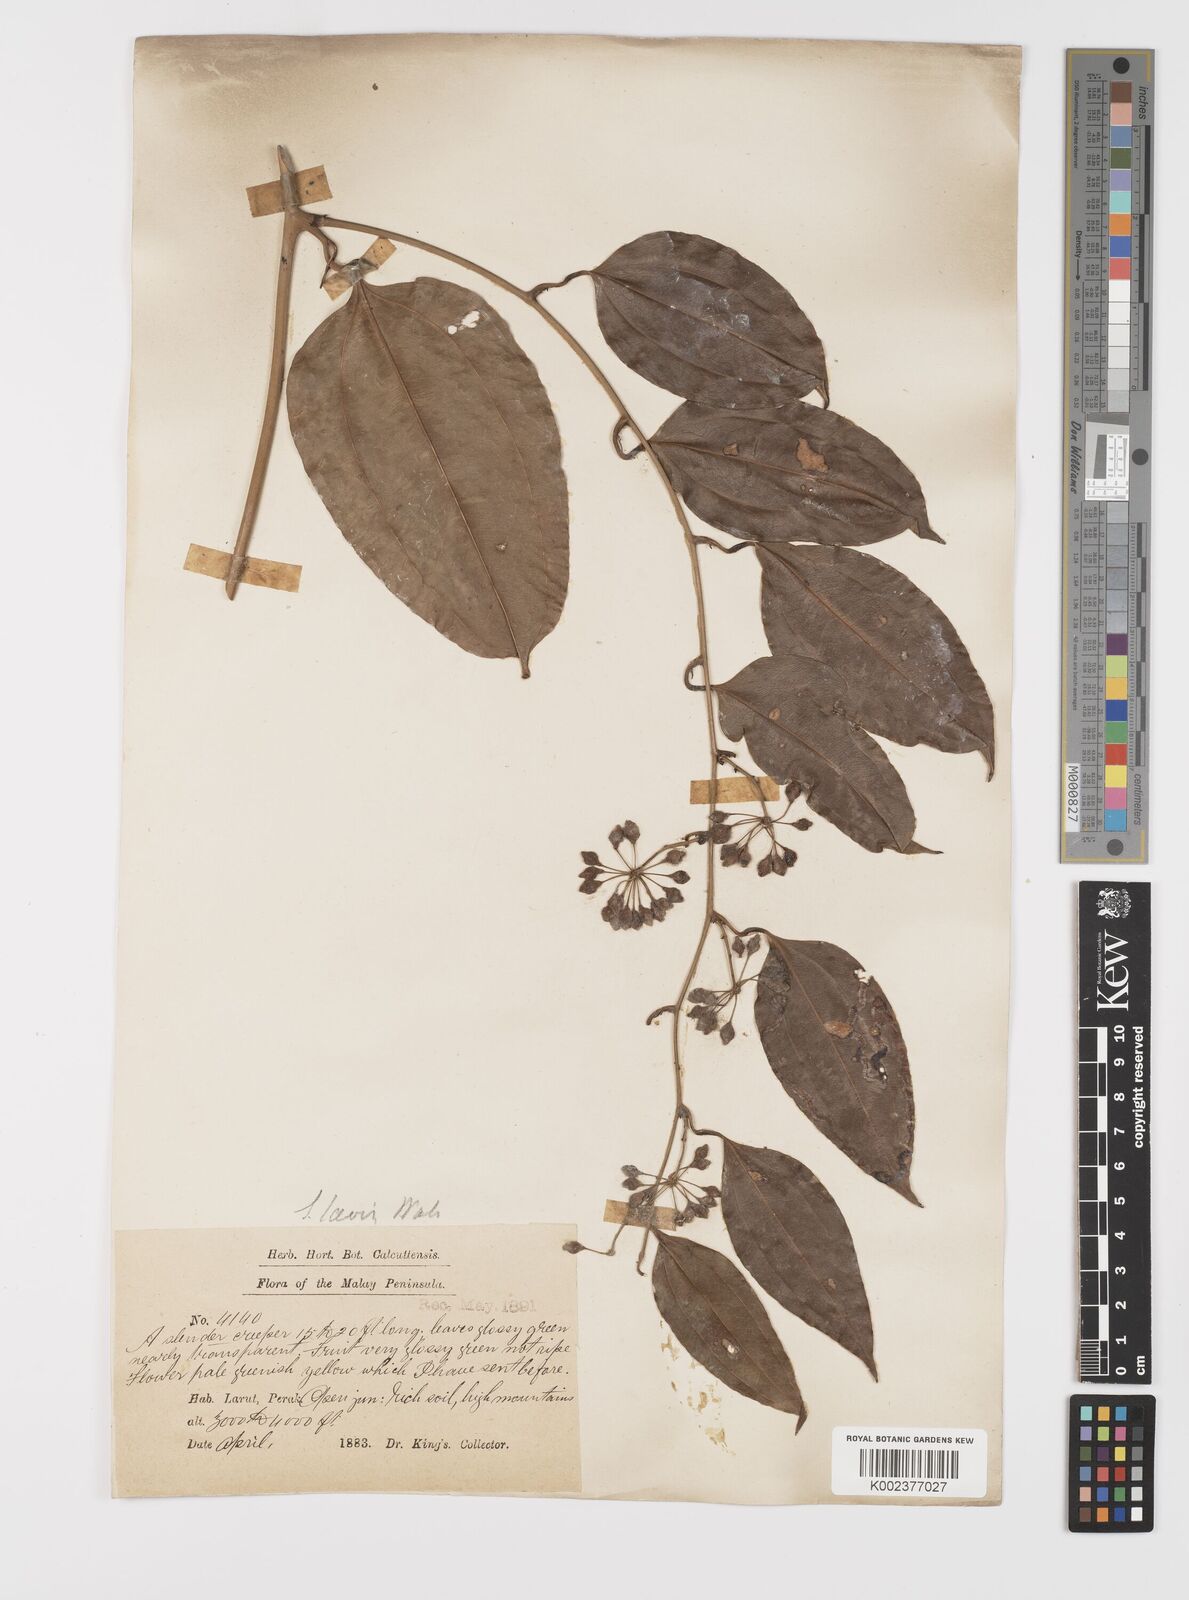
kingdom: Plantae
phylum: Tracheophyta
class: Liliopsida
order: Liliales
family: Smilacaceae
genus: Smilax
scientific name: Smilax laevis
